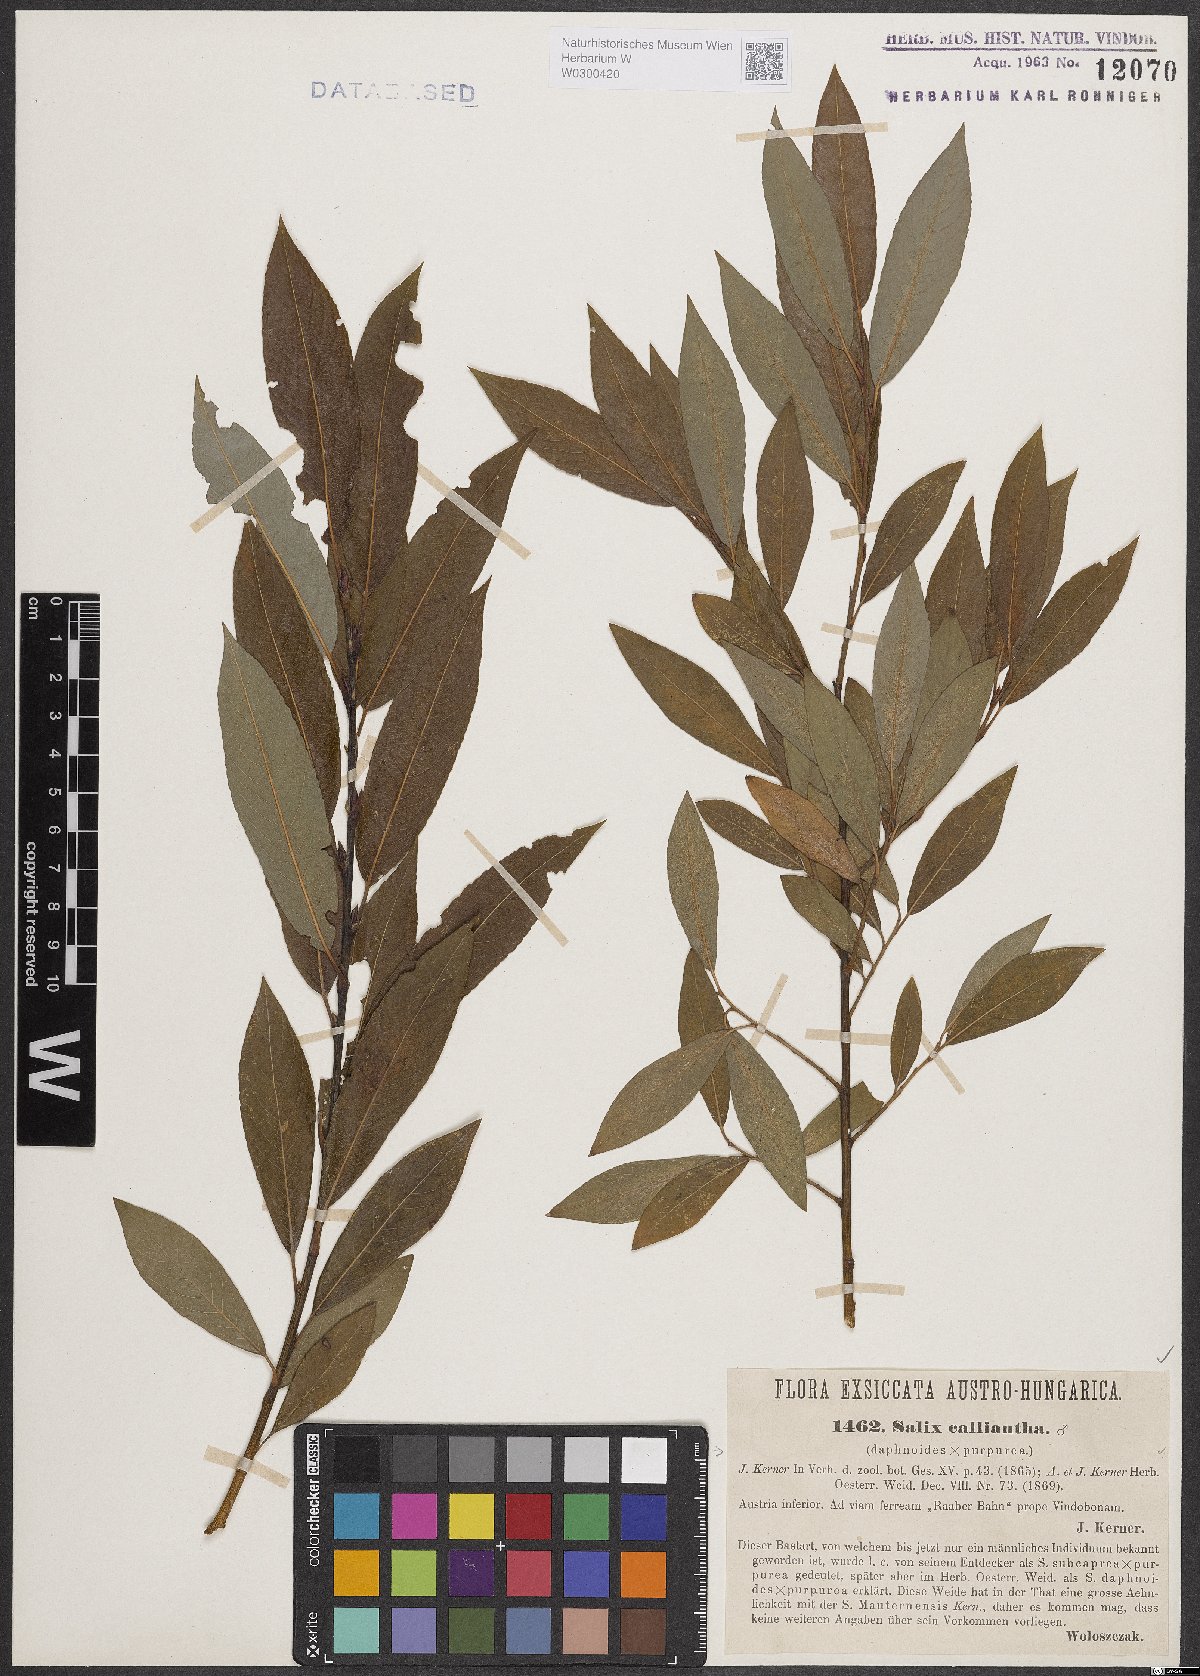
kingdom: Plantae
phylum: Tracheophyta
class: Magnoliopsida
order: Malpighiales
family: Salicaceae
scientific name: Salicaceae
